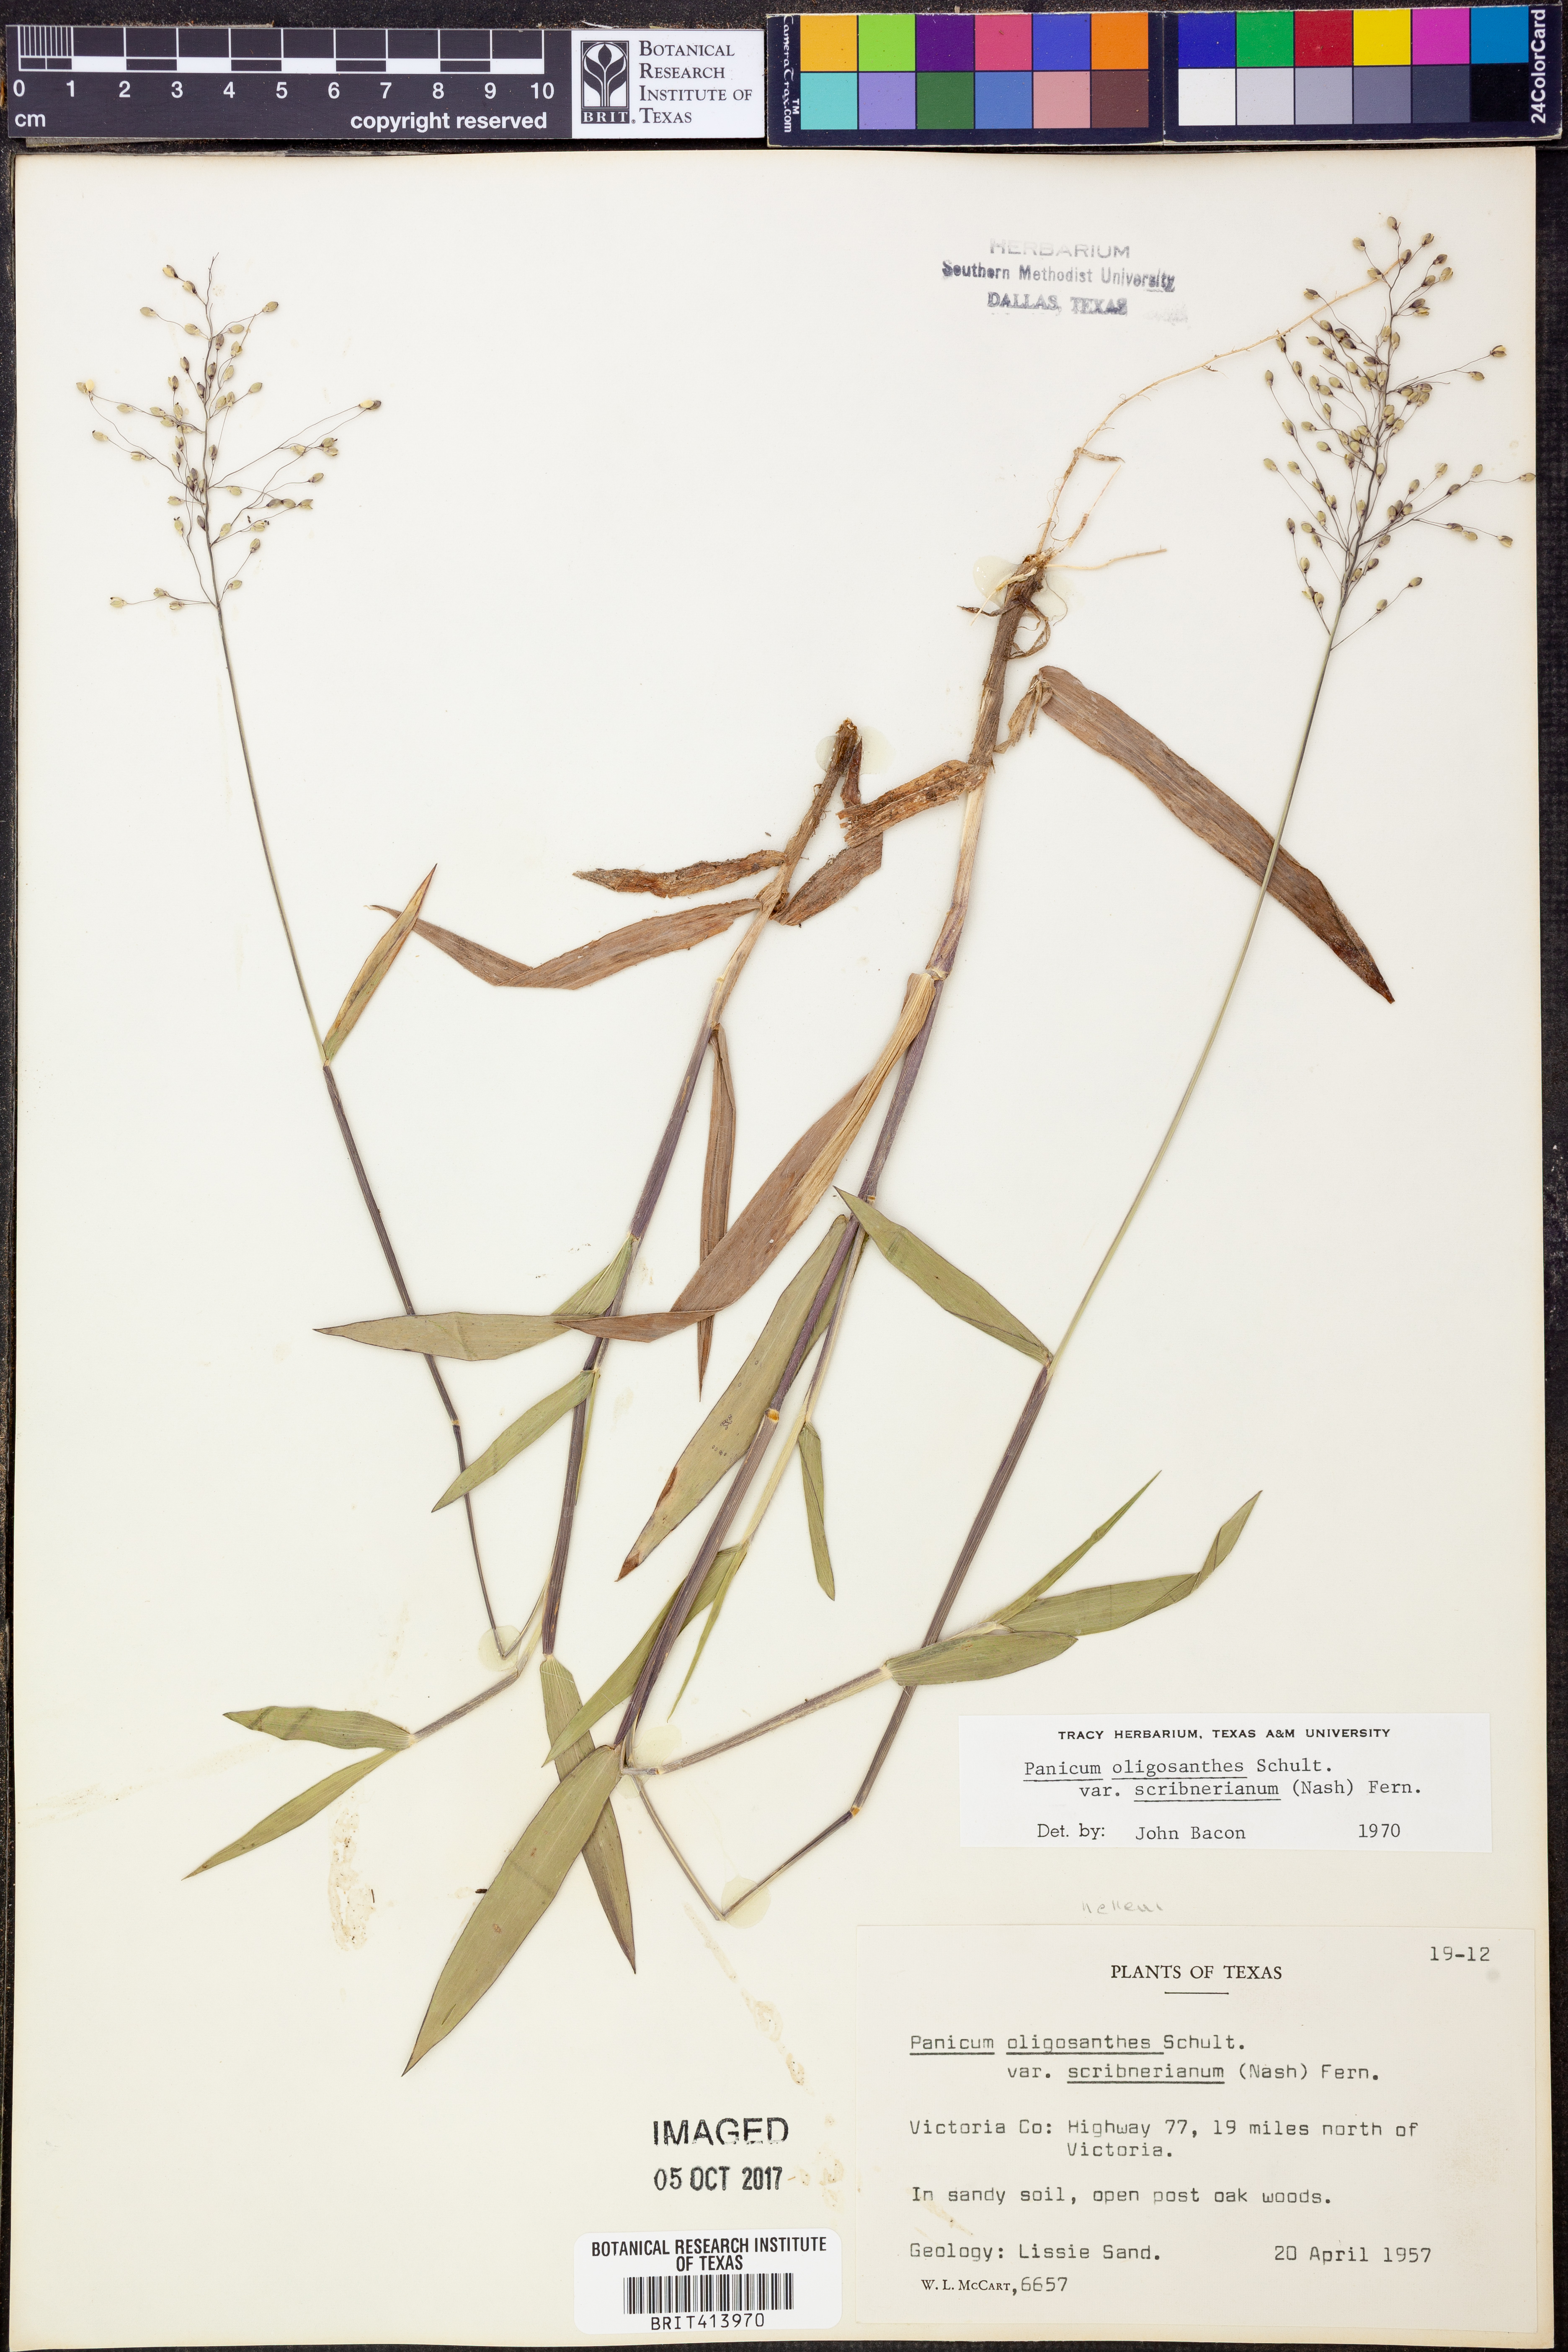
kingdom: Plantae
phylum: Tracheophyta
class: Liliopsida
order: Poales
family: Poaceae
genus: Dichanthelium
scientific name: Dichanthelium scribnerianum
